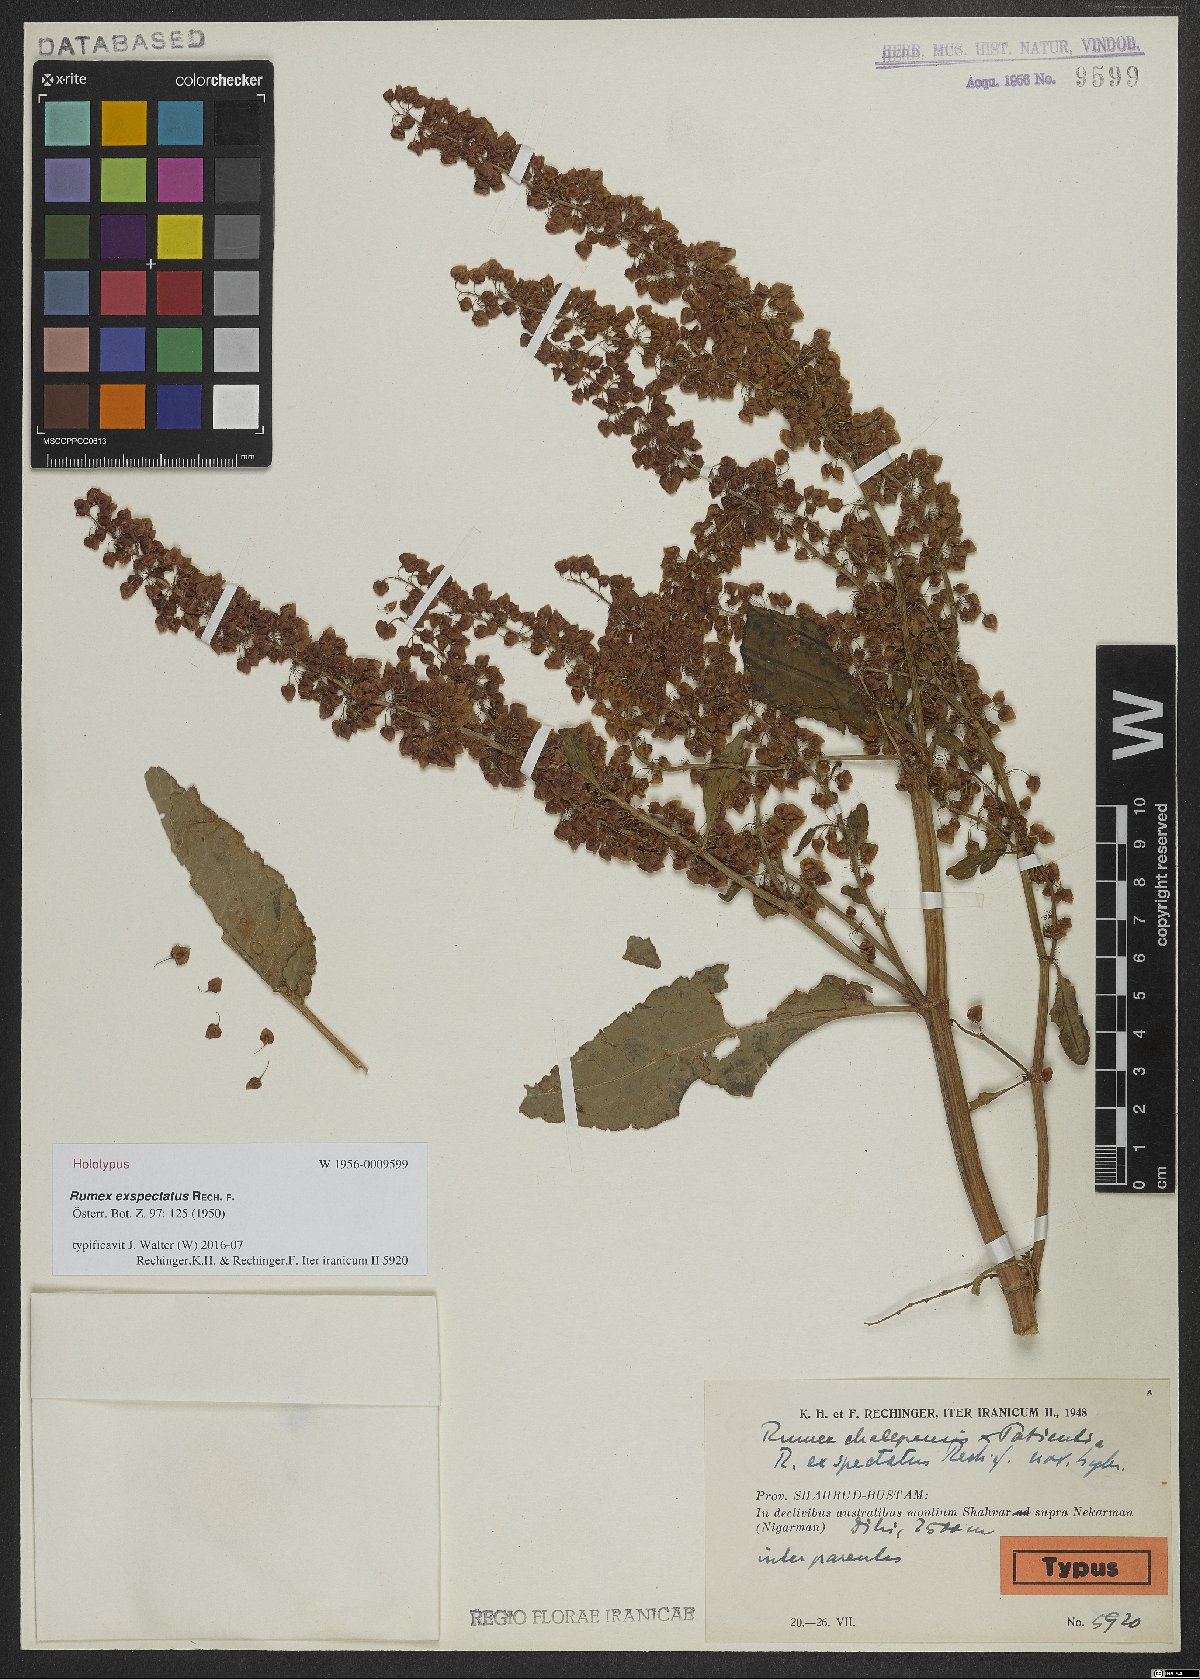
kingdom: Plantae
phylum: Tracheophyta
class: Magnoliopsida
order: Caryophyllales
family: Polygonaceae
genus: Rumex
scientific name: Rumex exspectatus
